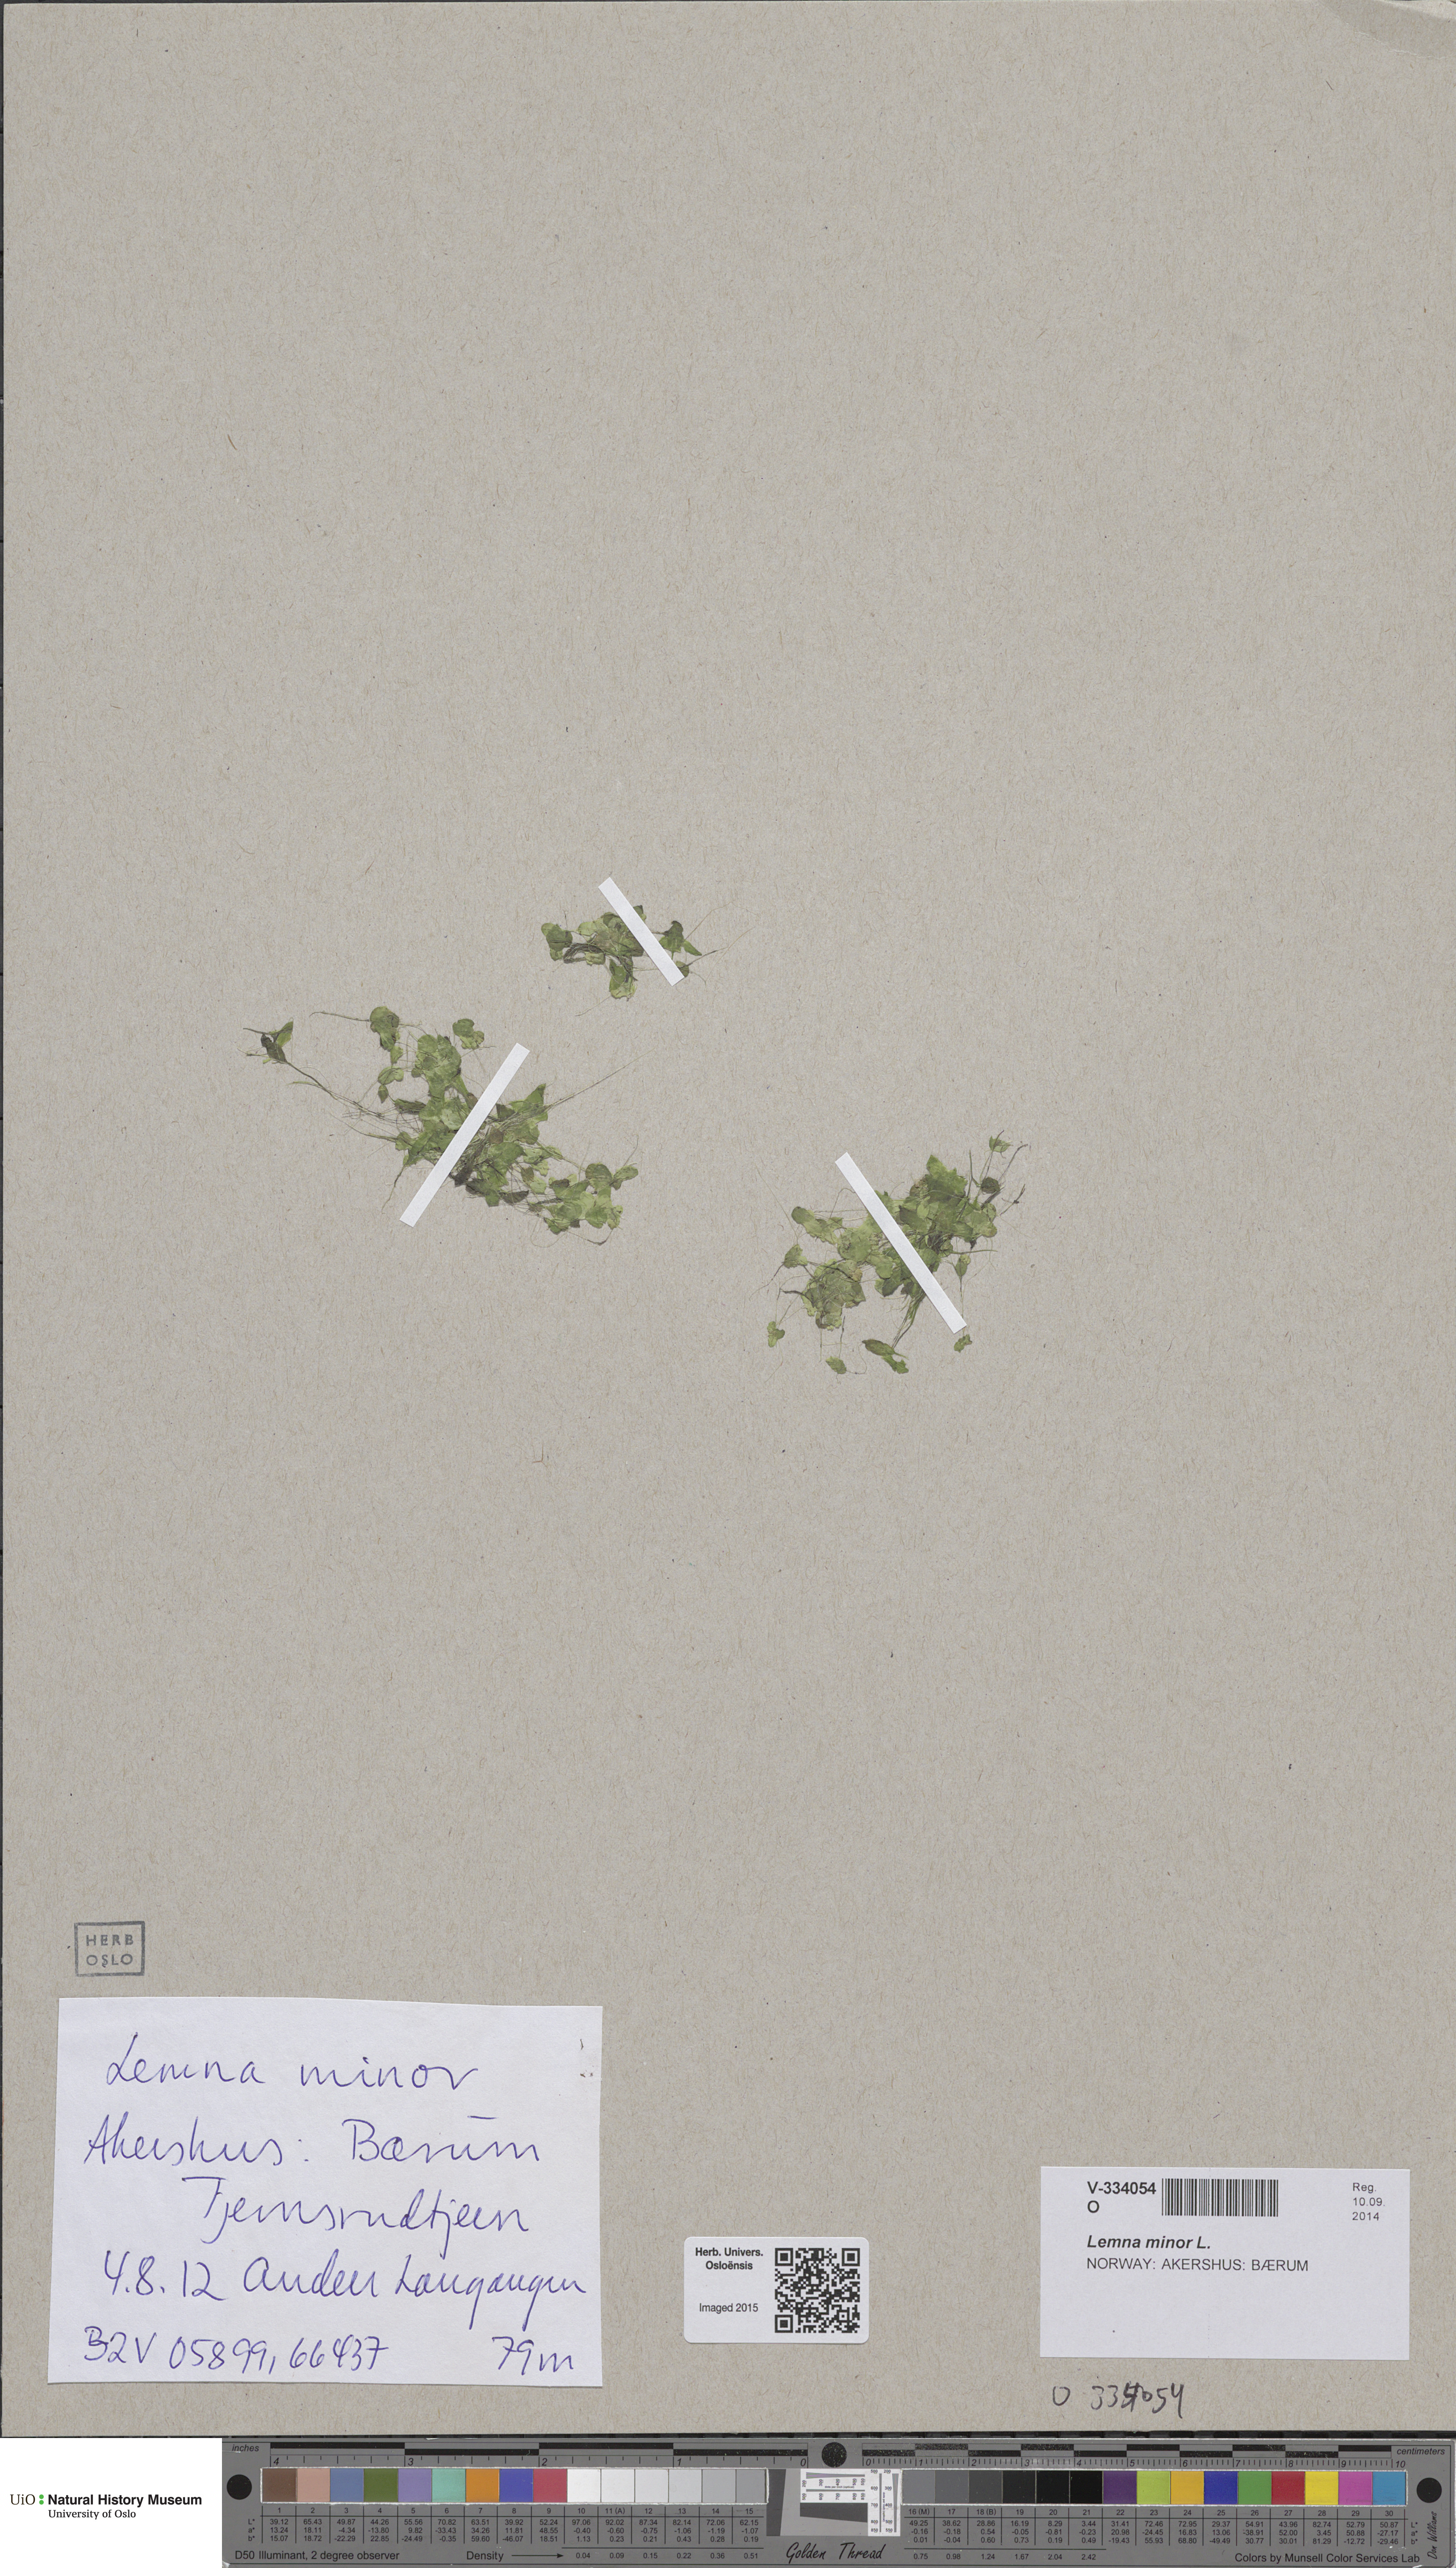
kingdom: Plantae
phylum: Tracheophyta
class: Liliopsida
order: Alismatales
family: Araceae
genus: Lemna
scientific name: Lemna minor
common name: Common duckweed
